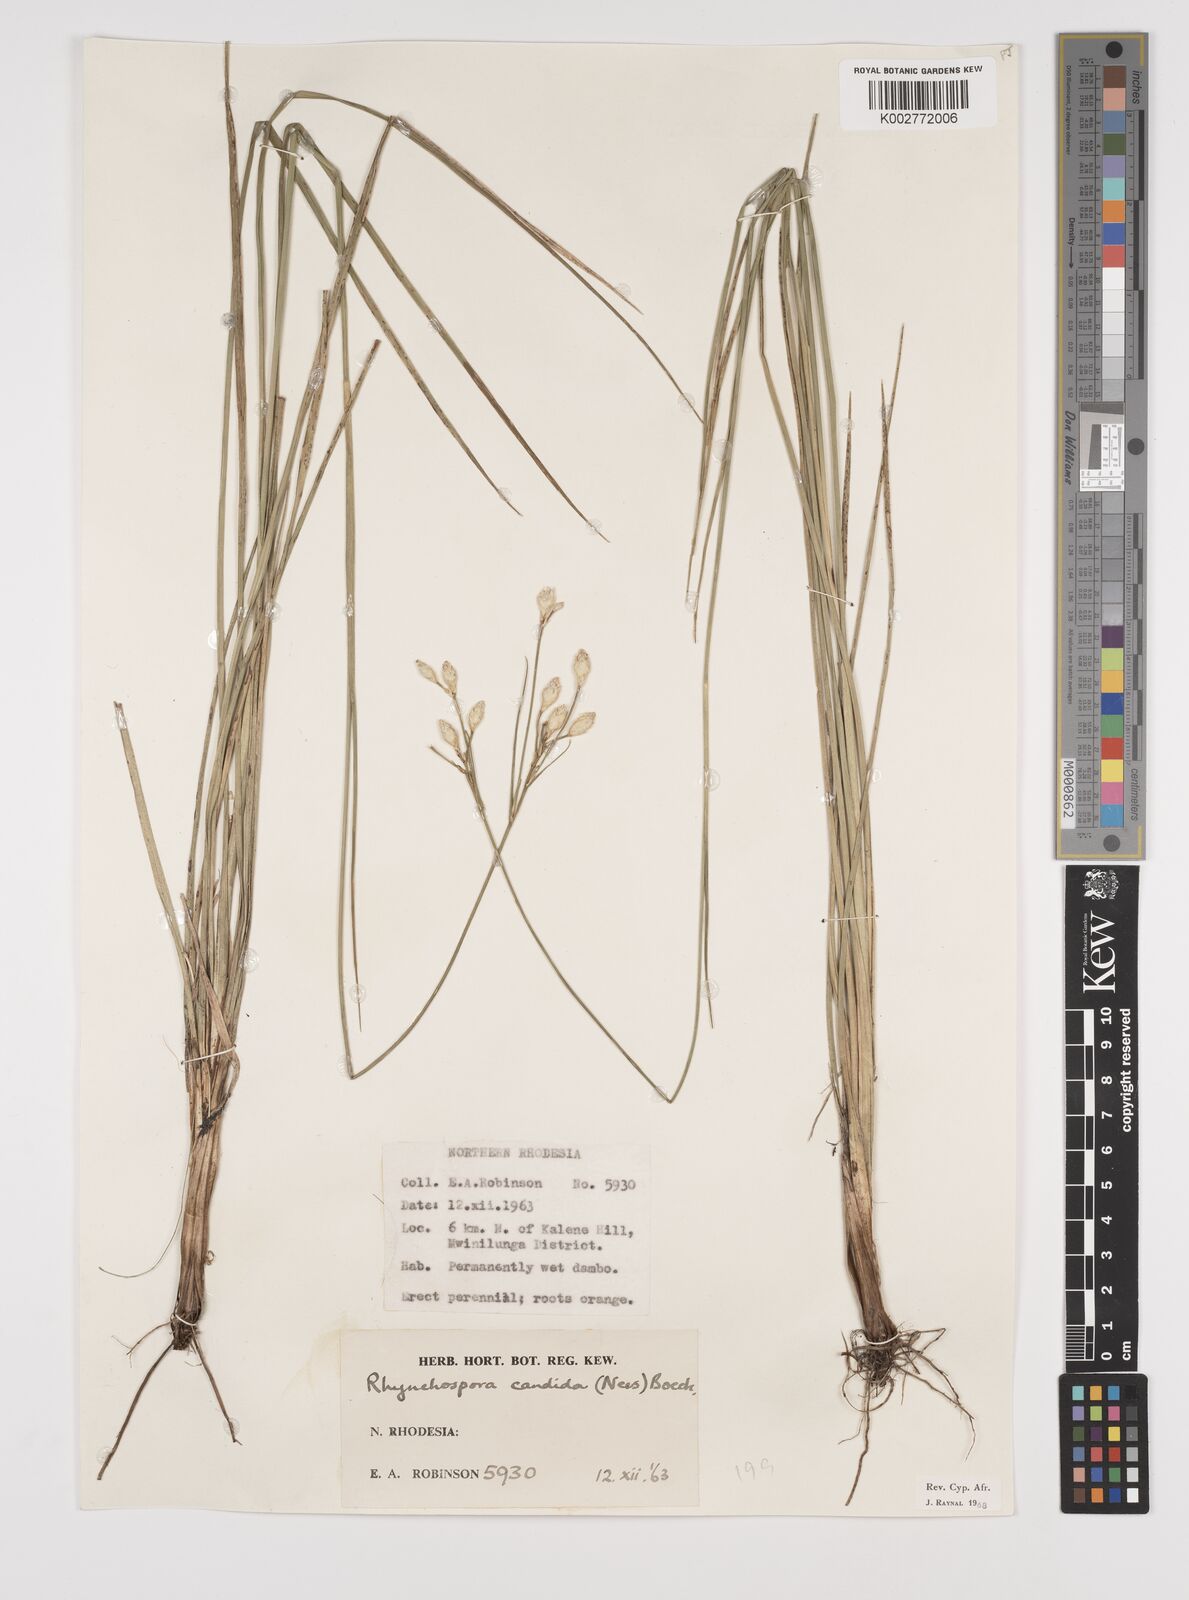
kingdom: Plantae
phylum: Tracheophyta
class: Liliopsida
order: Poales
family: Cyperaceae
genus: Rhynchospora
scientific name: Rhynchospora candida
